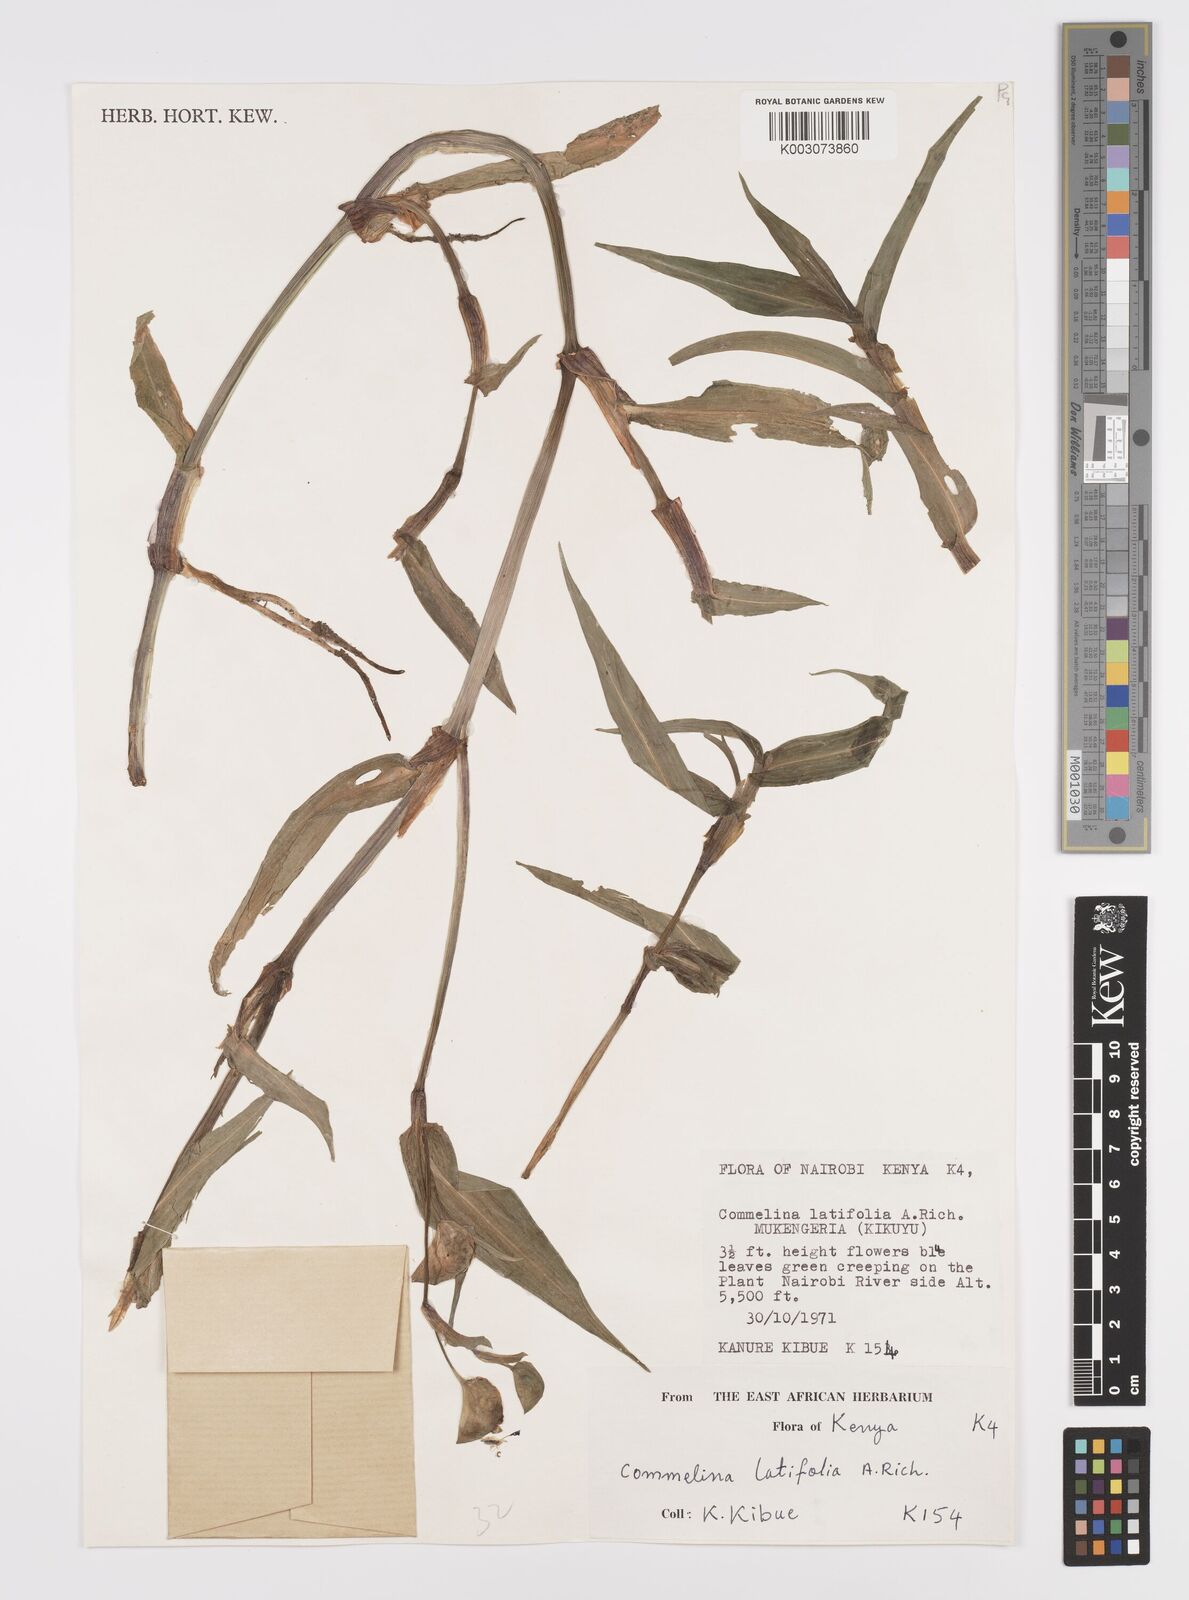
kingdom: Plantae
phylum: Tracheophyta
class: Liliopsida
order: Commelinales
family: Commelinaceae
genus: Commelina
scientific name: Commelina latifolia
